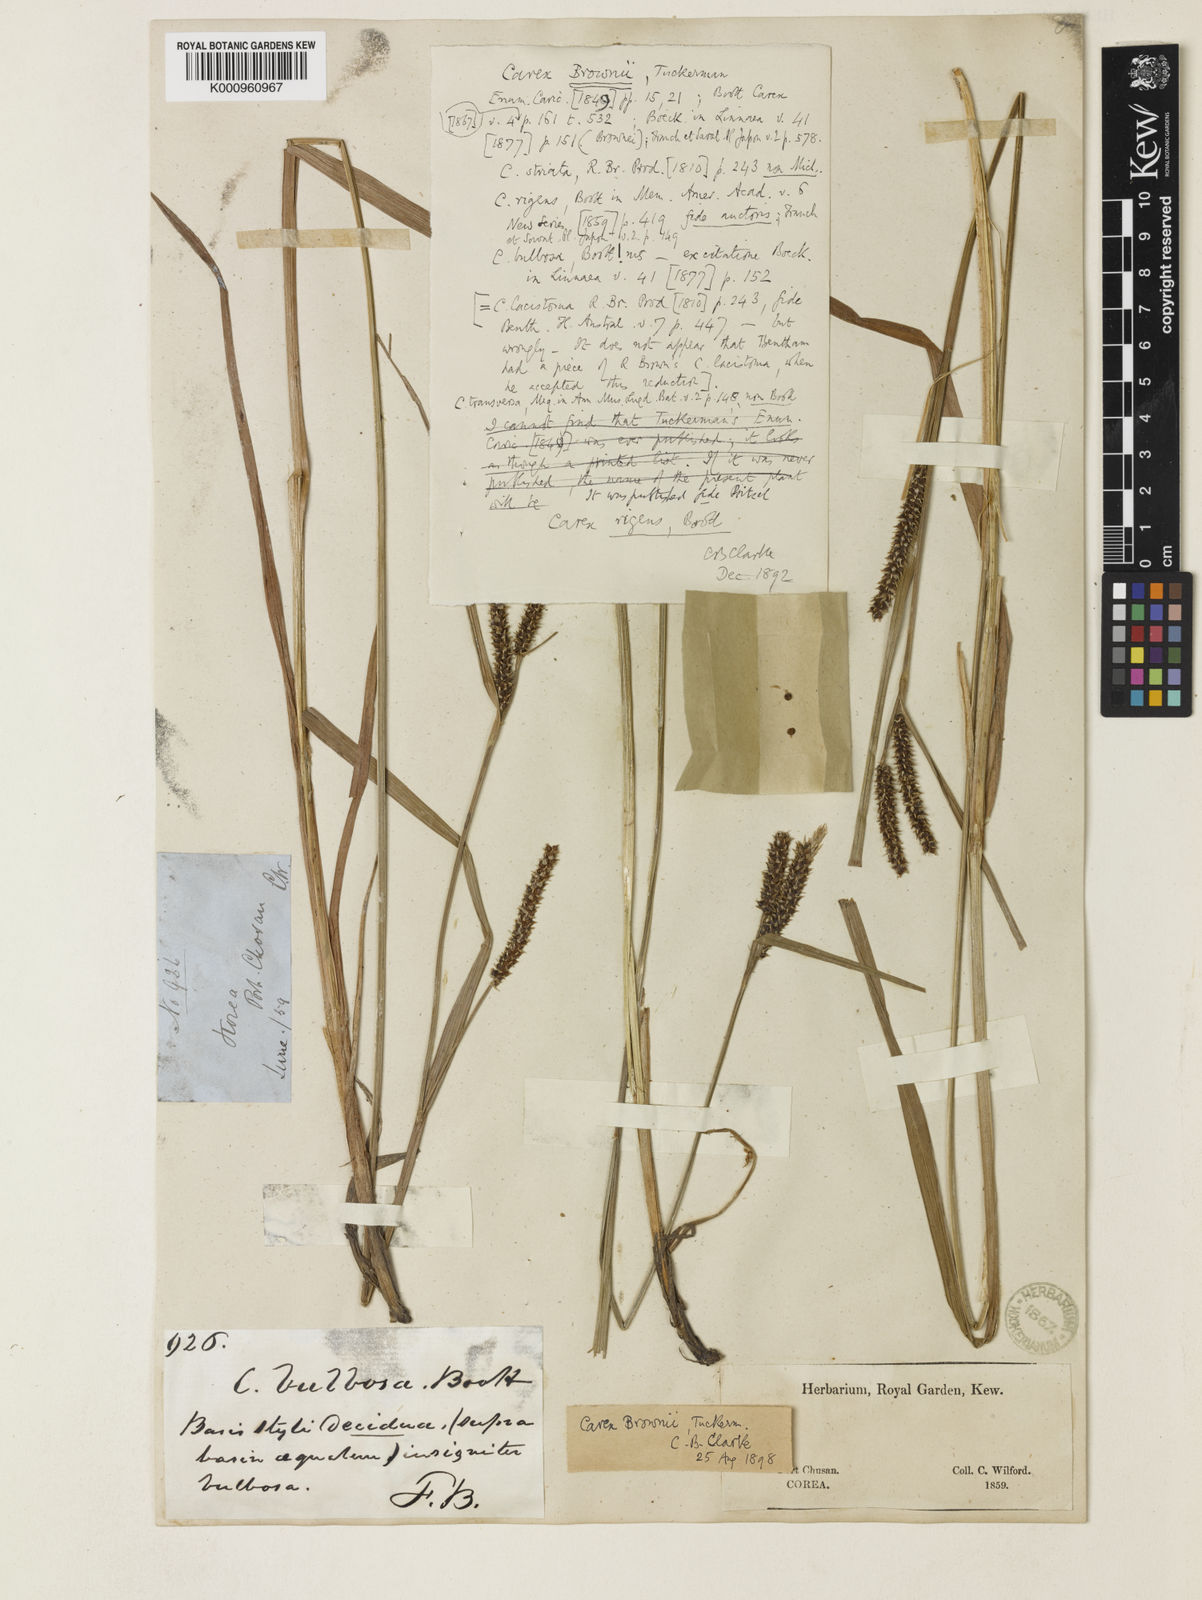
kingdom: Plantae
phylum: Tracheophyta
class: Liliopsida
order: Poales
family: Cyperaceae
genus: Carex
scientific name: Carex brownii
